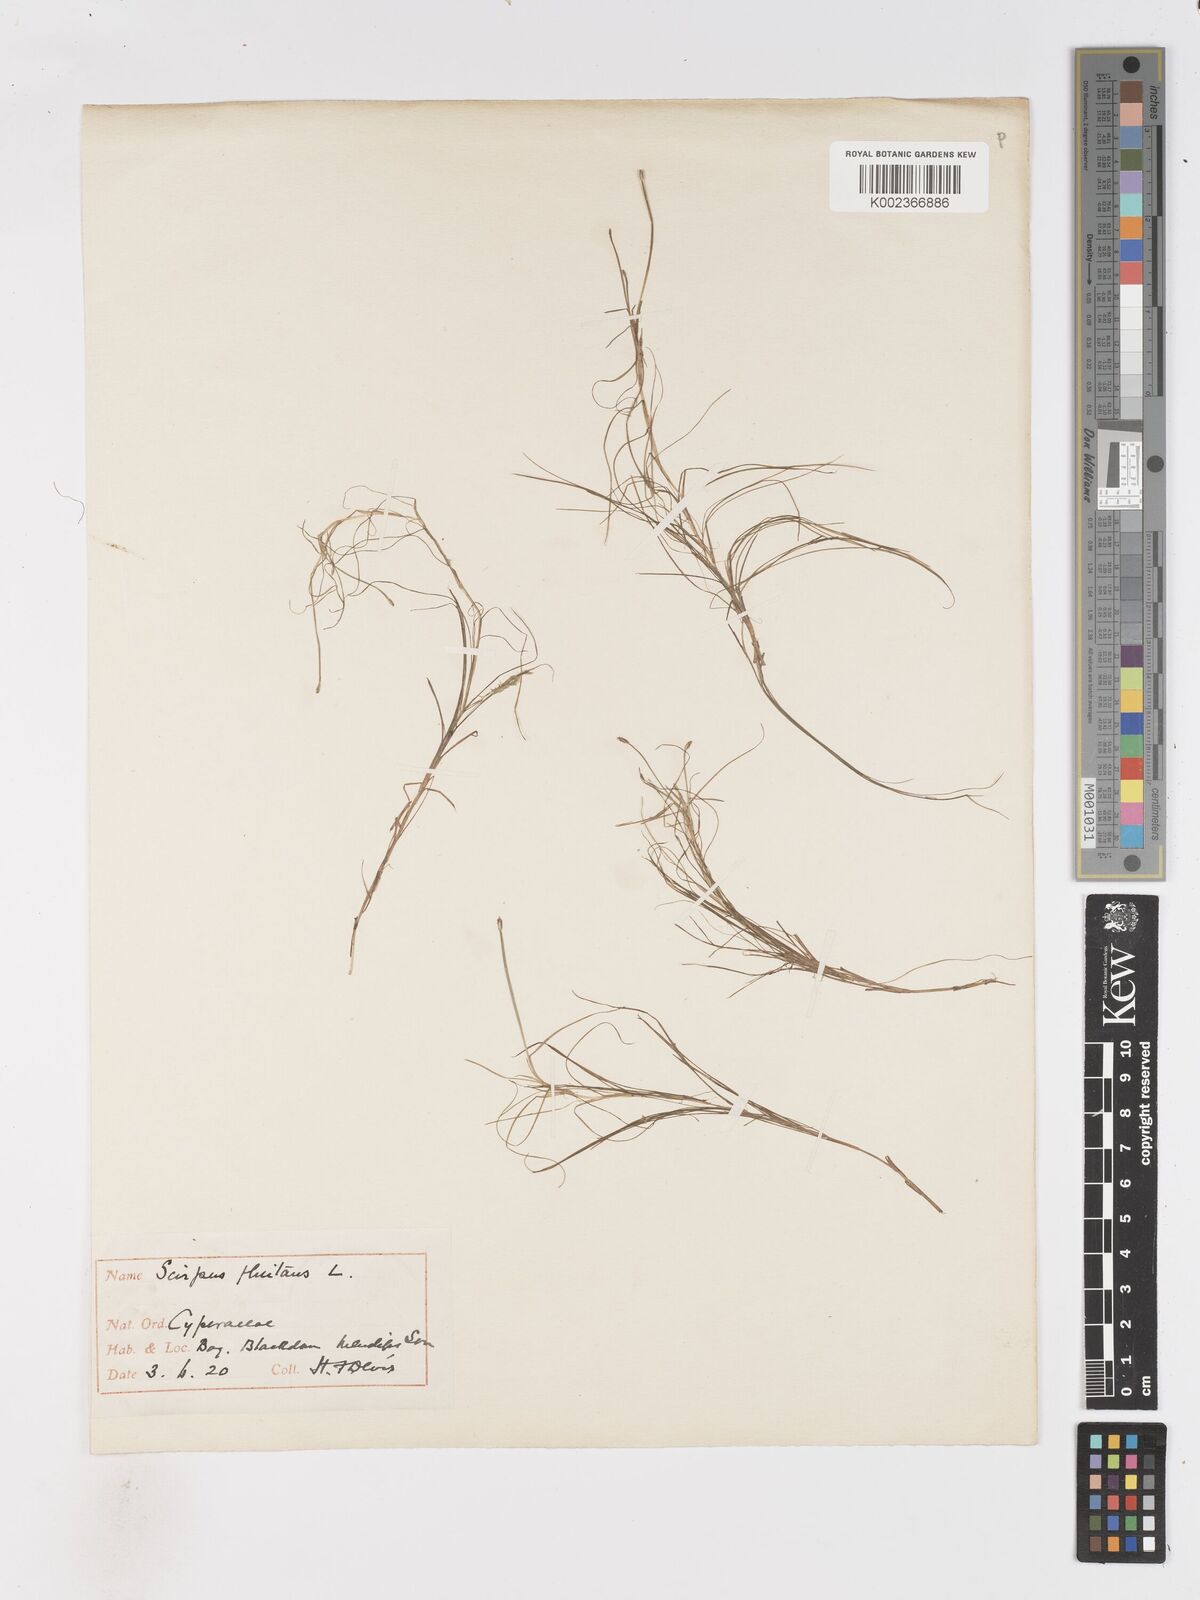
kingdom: Plantae
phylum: Tracheophyta
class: Liliopsida
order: Poales
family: Cyperaceae
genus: Isolepis
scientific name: Isolepis fluitans
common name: Floating club-rush
